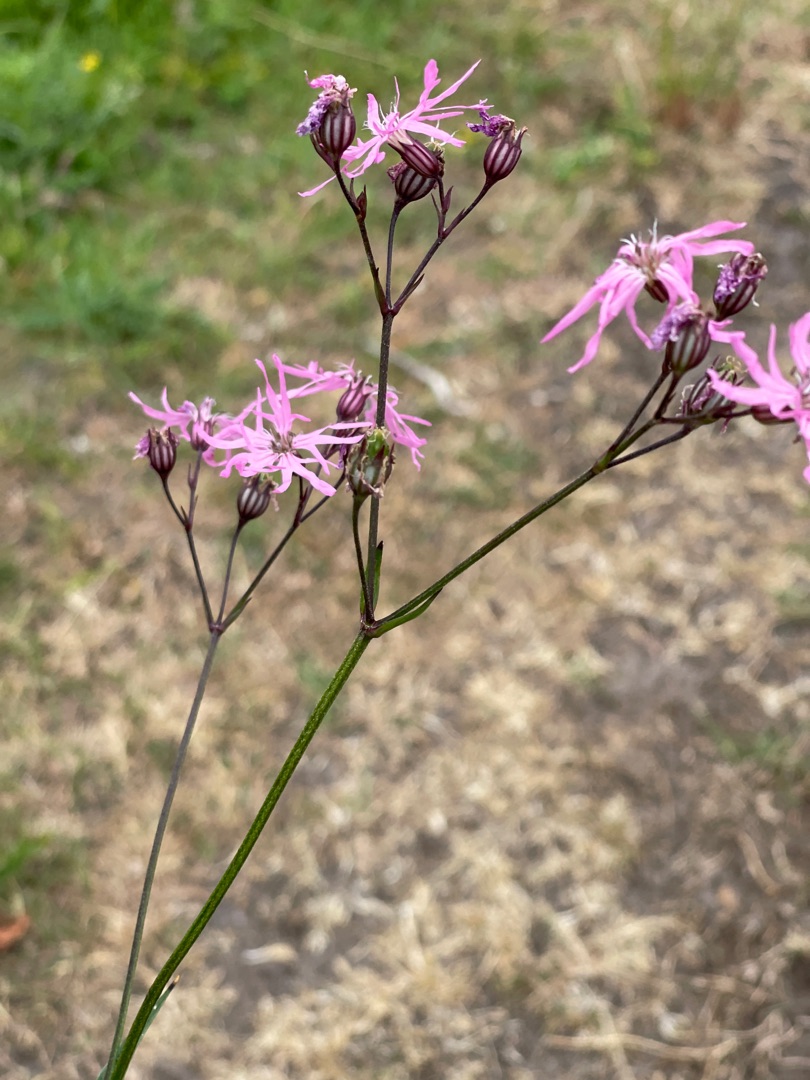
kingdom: Plantae
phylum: Tracheophyta
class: Magnoliopsida
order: Caryophyllales
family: Caryophyllaceae
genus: Silene
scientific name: Silene flos-cuculi
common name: Trævlekrone
